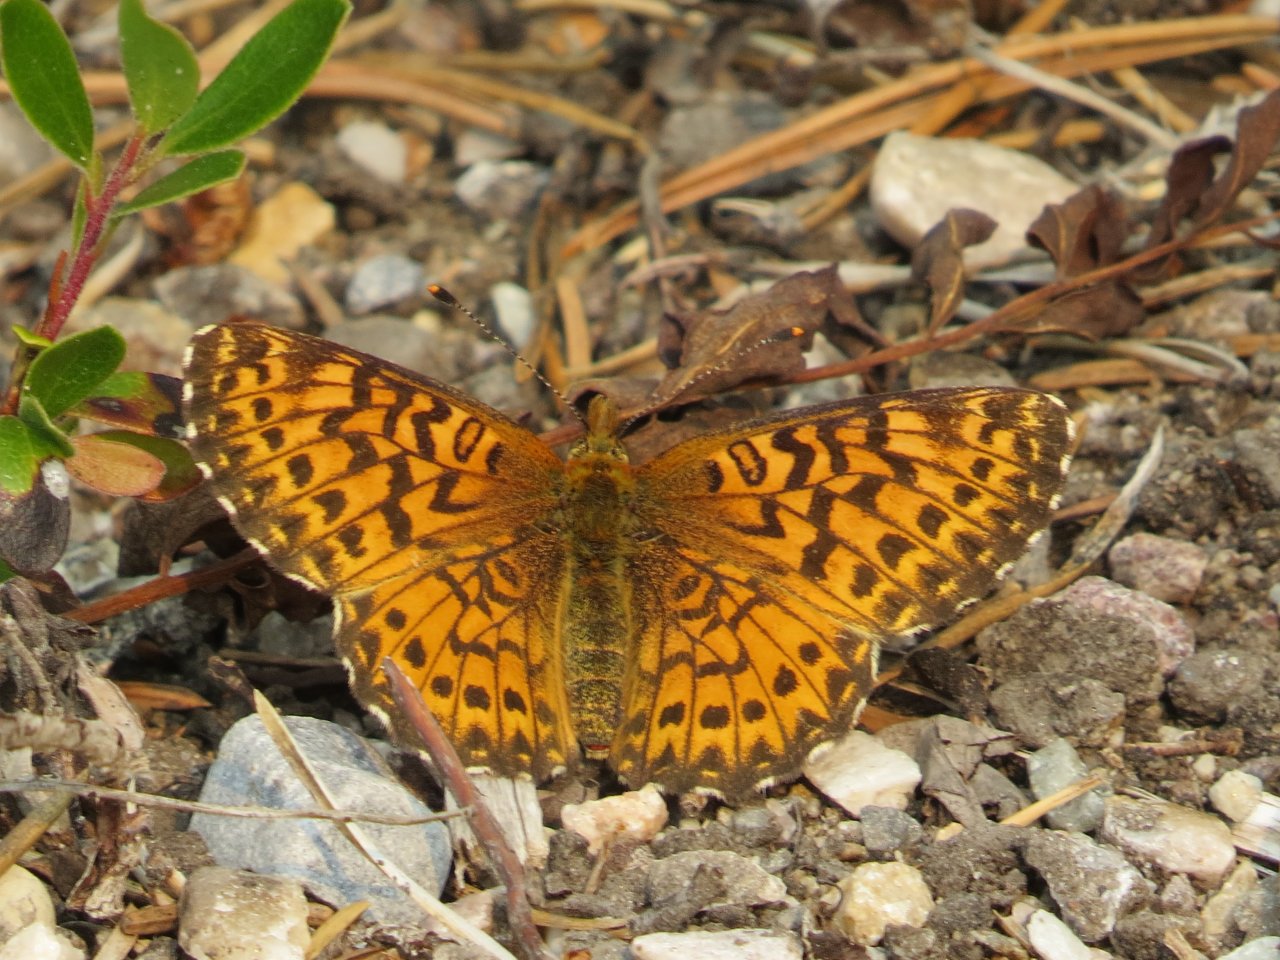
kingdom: Animalia
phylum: Arthropoda
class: Insecta
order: Lepidoptera
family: Nymphalidae
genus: Boloria
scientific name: Boloria chariclea
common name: Arctic Fritillary
